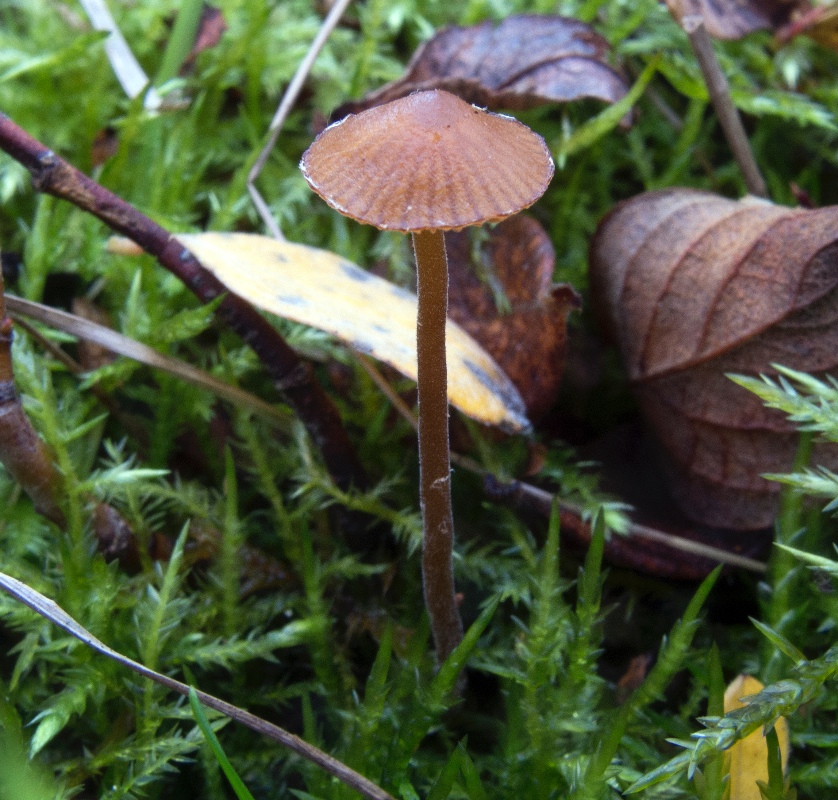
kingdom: Fungi
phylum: Basidiomycota
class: Agaricomycetes
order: Agaricales
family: Hymenogastraceae
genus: Galerina
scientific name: Galerina caulocystidiata
